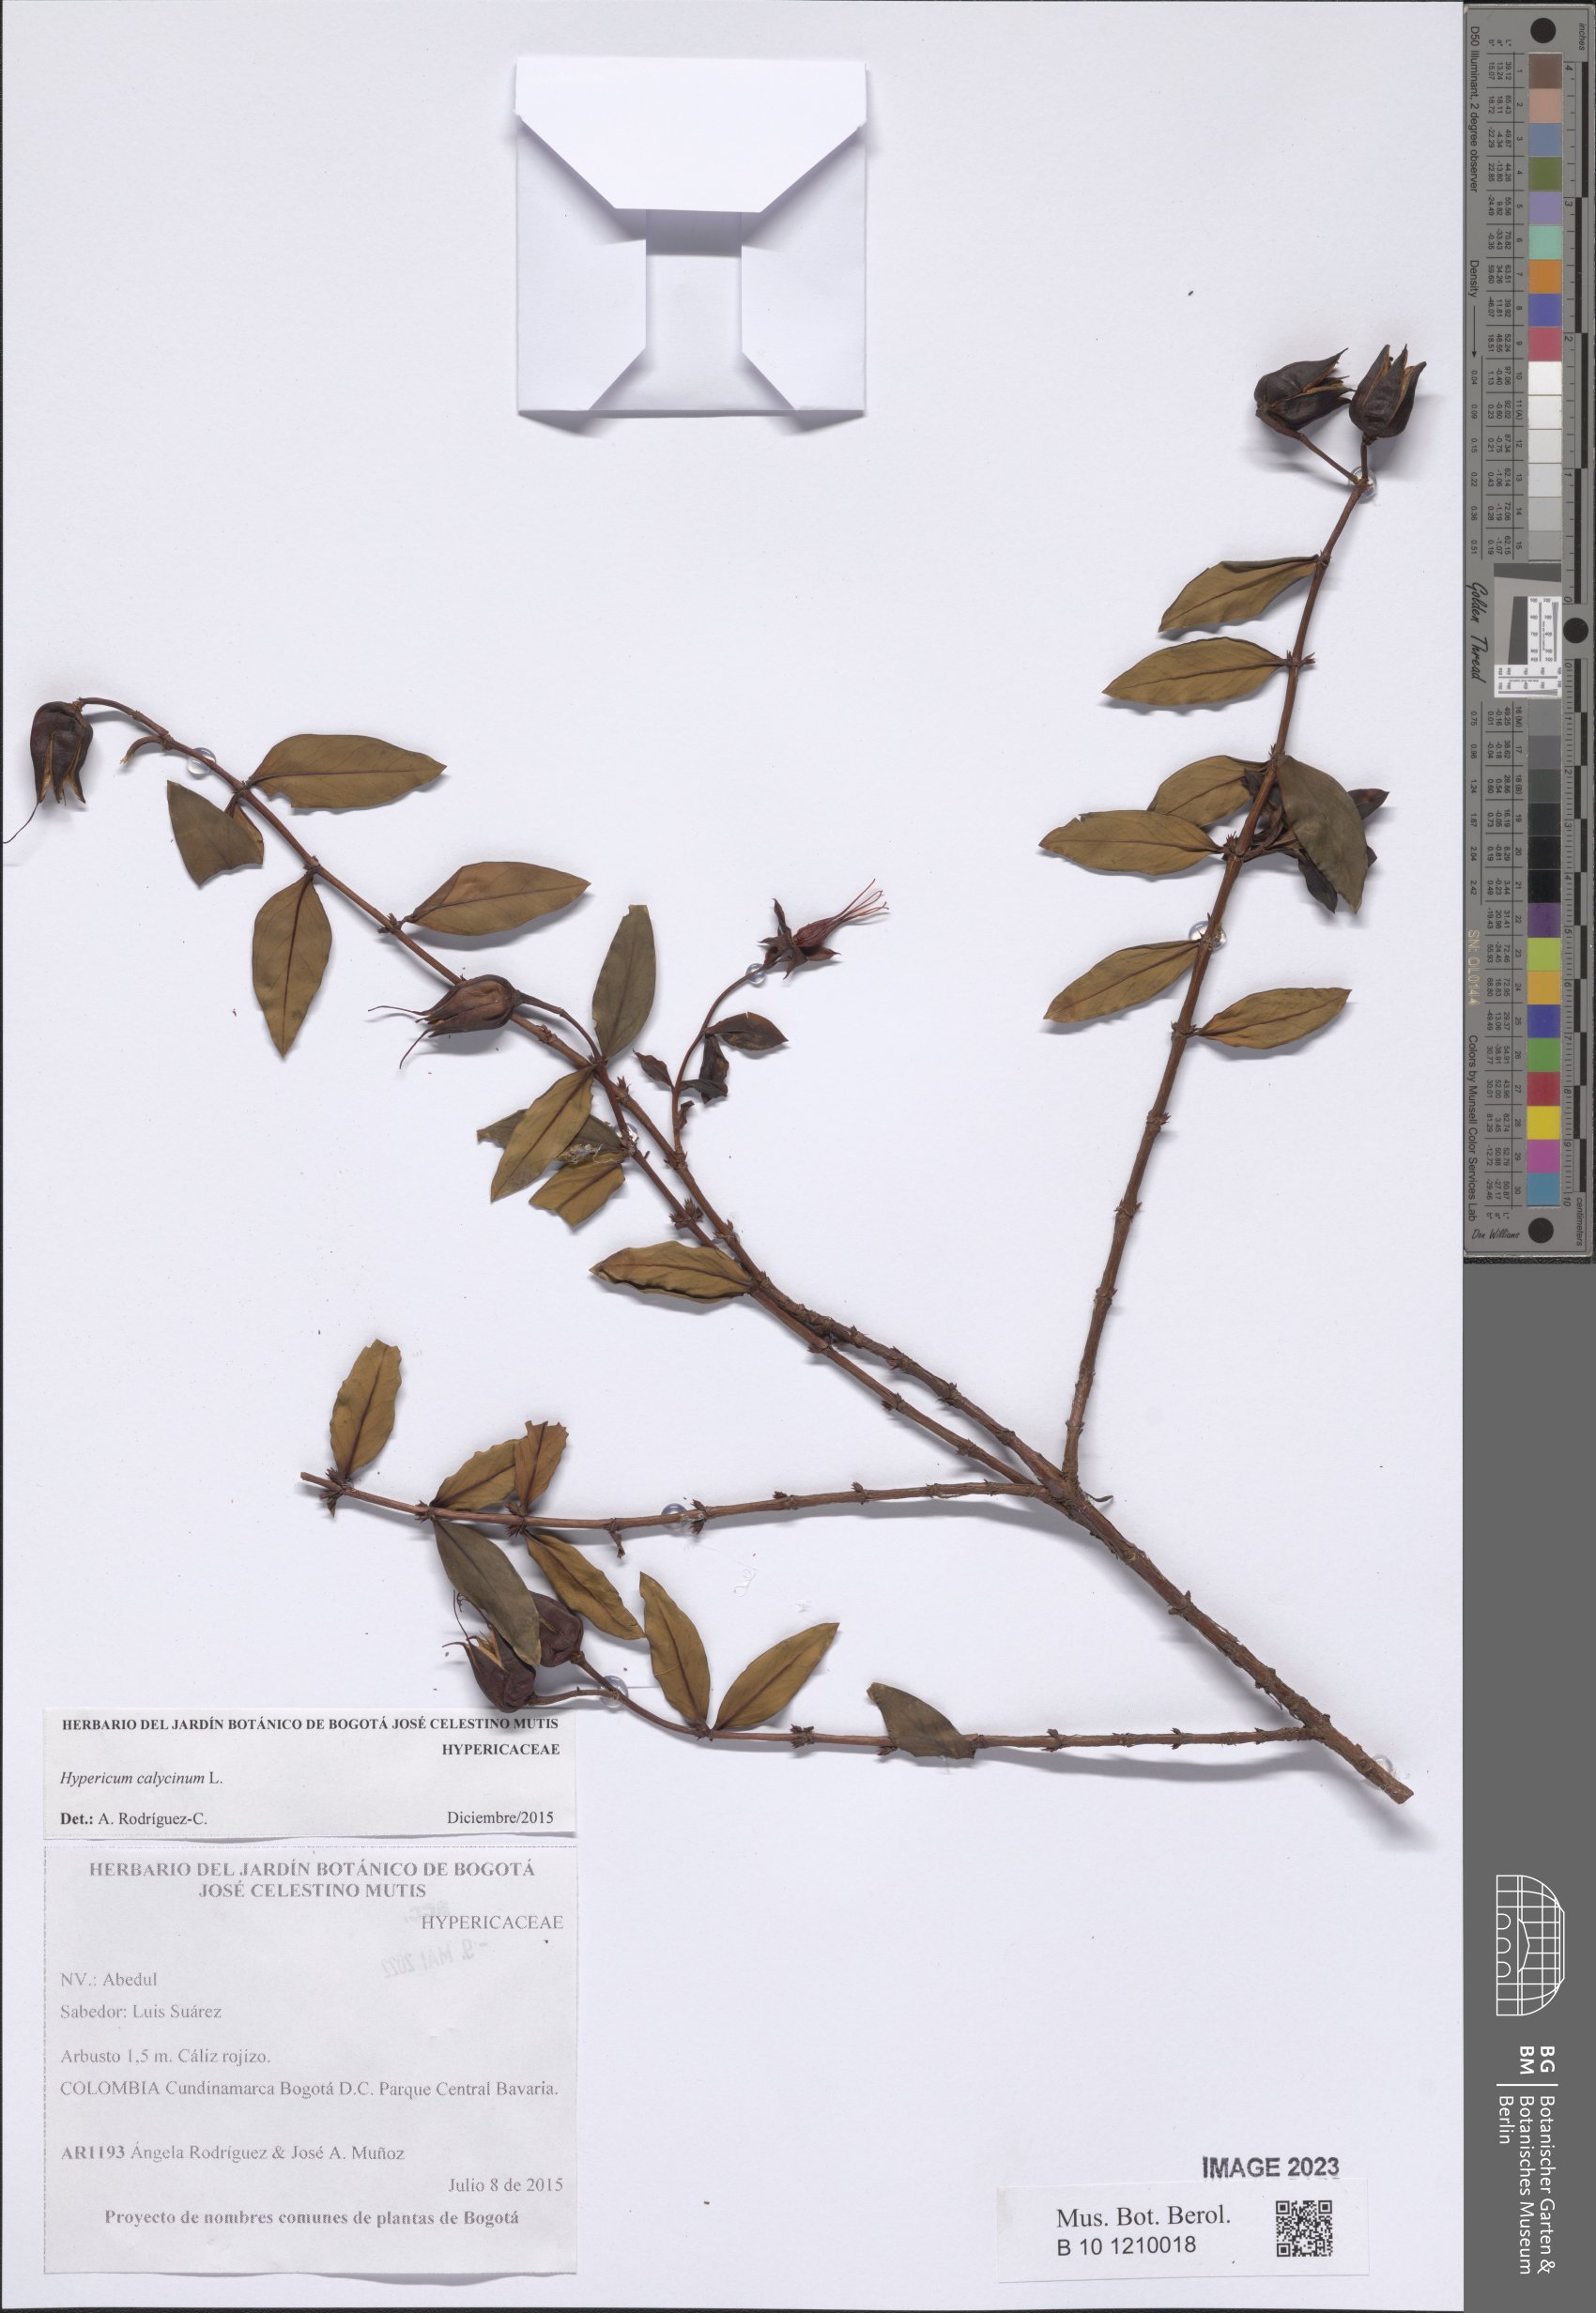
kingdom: Plantae
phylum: Tracheophyta
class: Magnoliopsida
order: Malpighiales
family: Hypericaceae
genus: Hypericum
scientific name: Hypericum calycinum
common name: Rose-of-sharon
